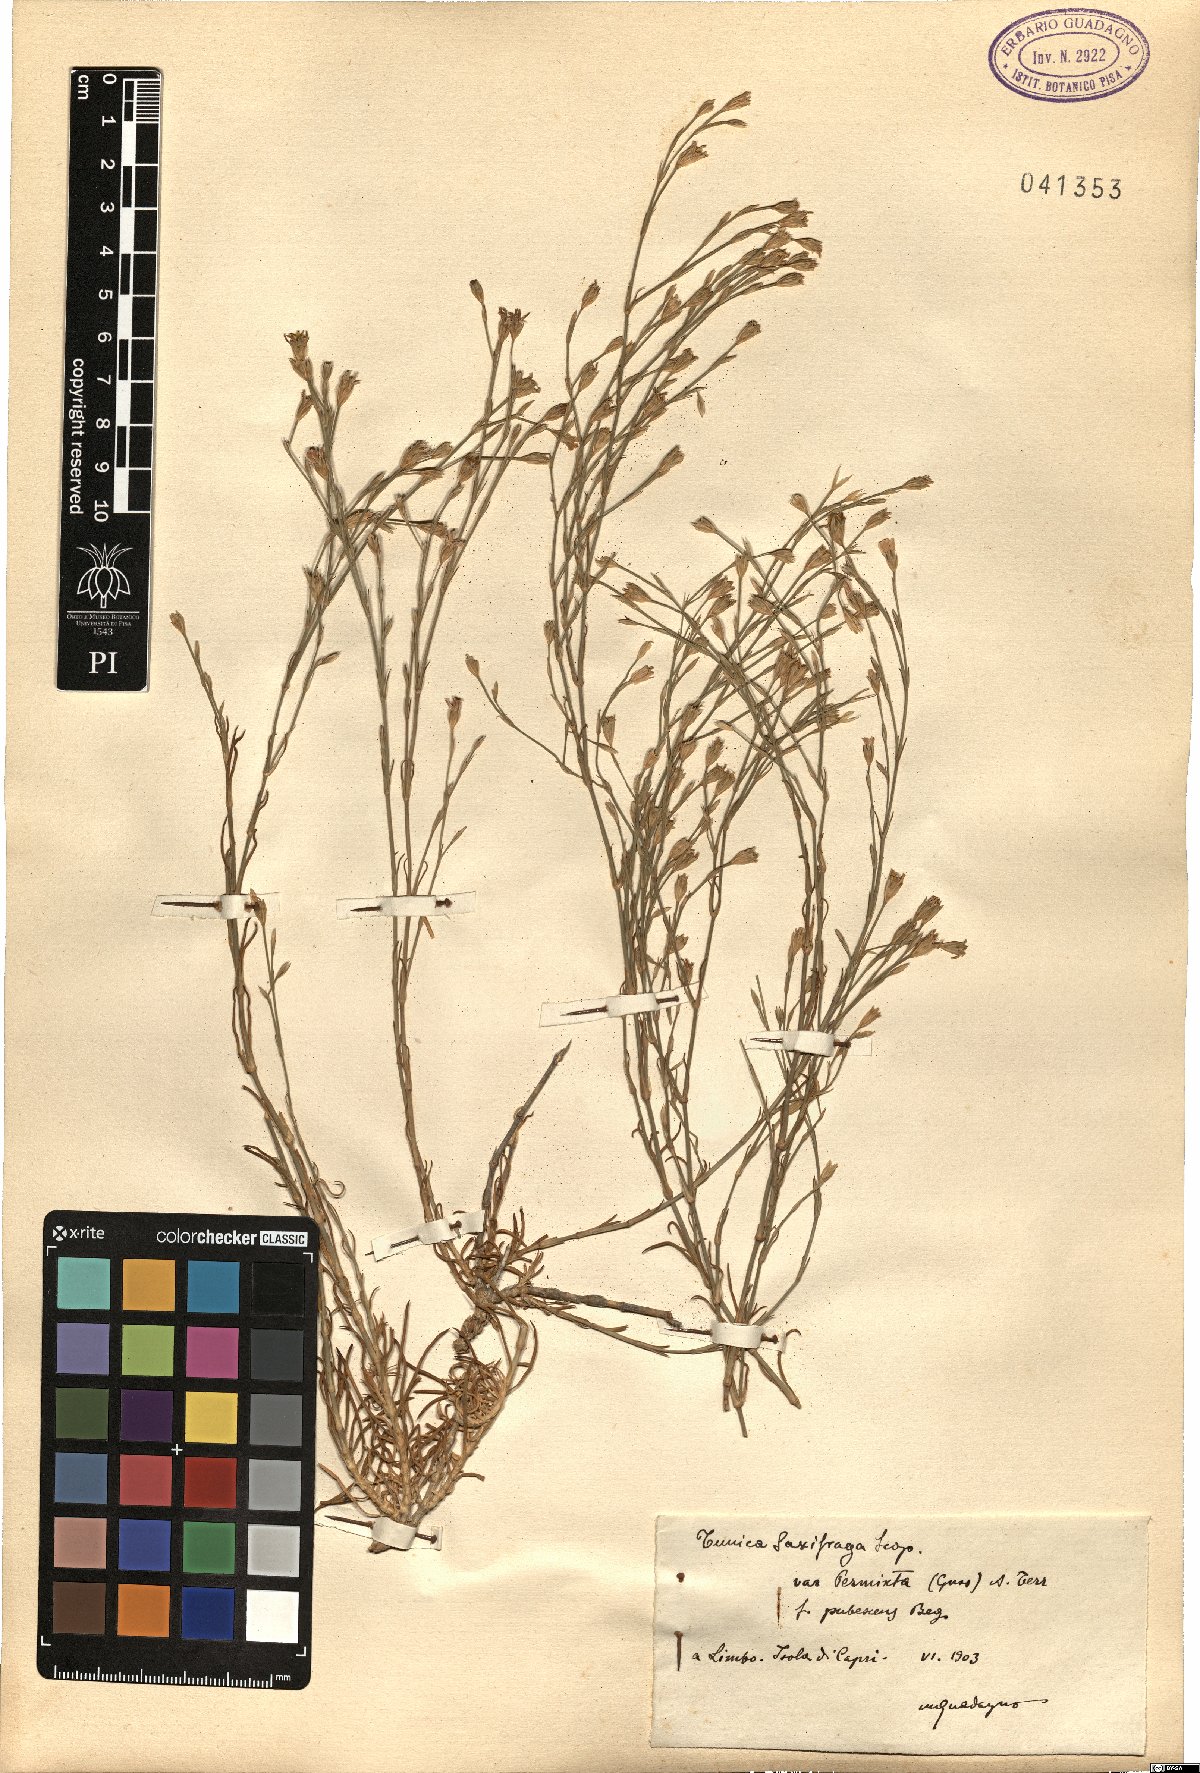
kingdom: Plantae
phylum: Tracheophyta
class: Magnoliopsida
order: Caryophyllales
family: Caryophyllaceae
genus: Petrorhagia
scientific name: Petrorhagia saxifraga
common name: Tunicflower
